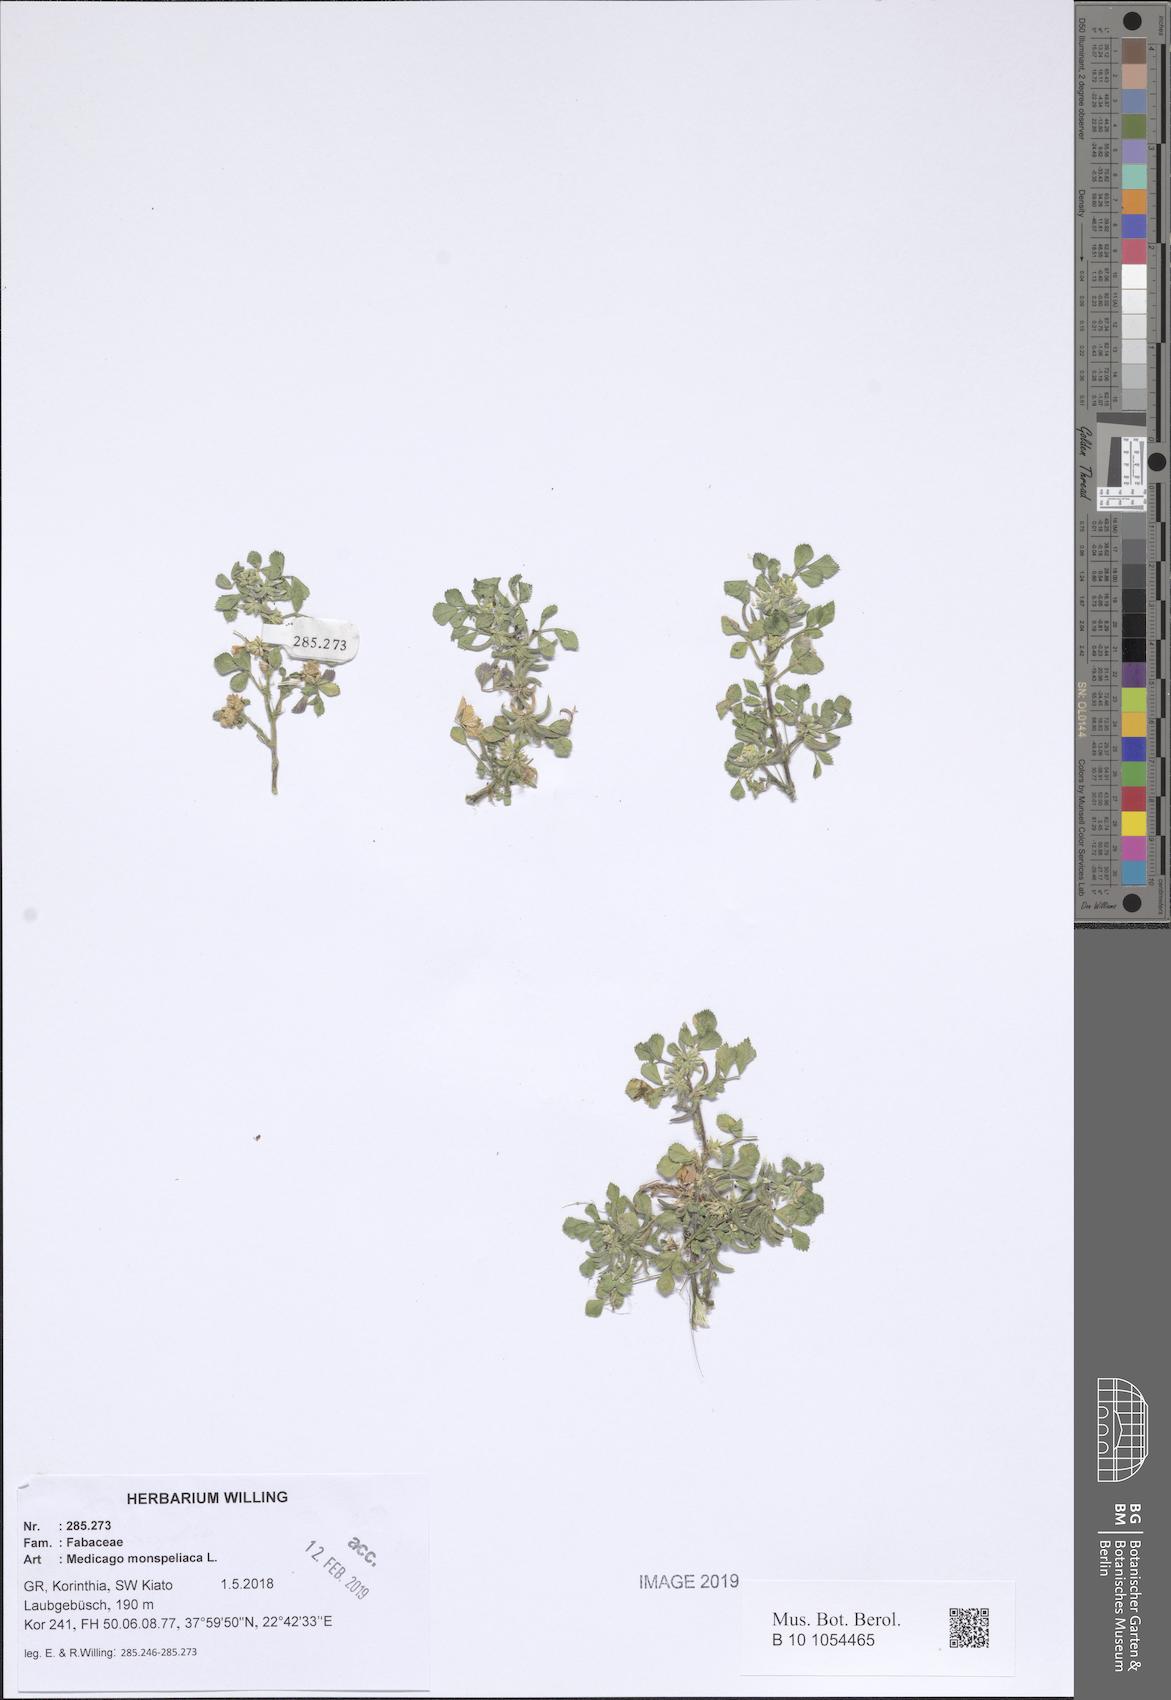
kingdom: Plantae
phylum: Tracheophyta
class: Magnoliopsida
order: Fabales
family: Fabaceae
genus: Medicago
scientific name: Medicago monspeliaca
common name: Hairy medick
